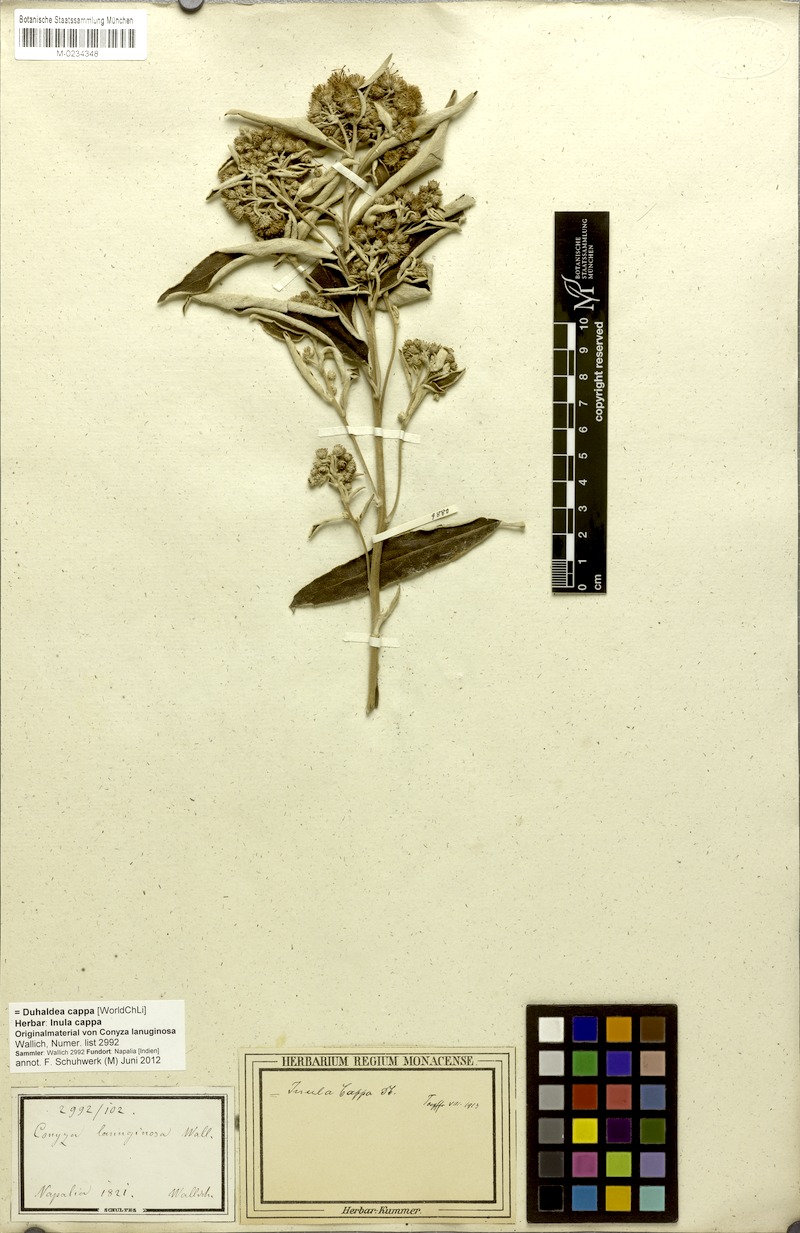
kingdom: Plantae
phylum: Tracheophyta
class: Magnoliopsida
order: Asterales
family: Asteraceae
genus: Duhaldea
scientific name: Duhaldea cappa
